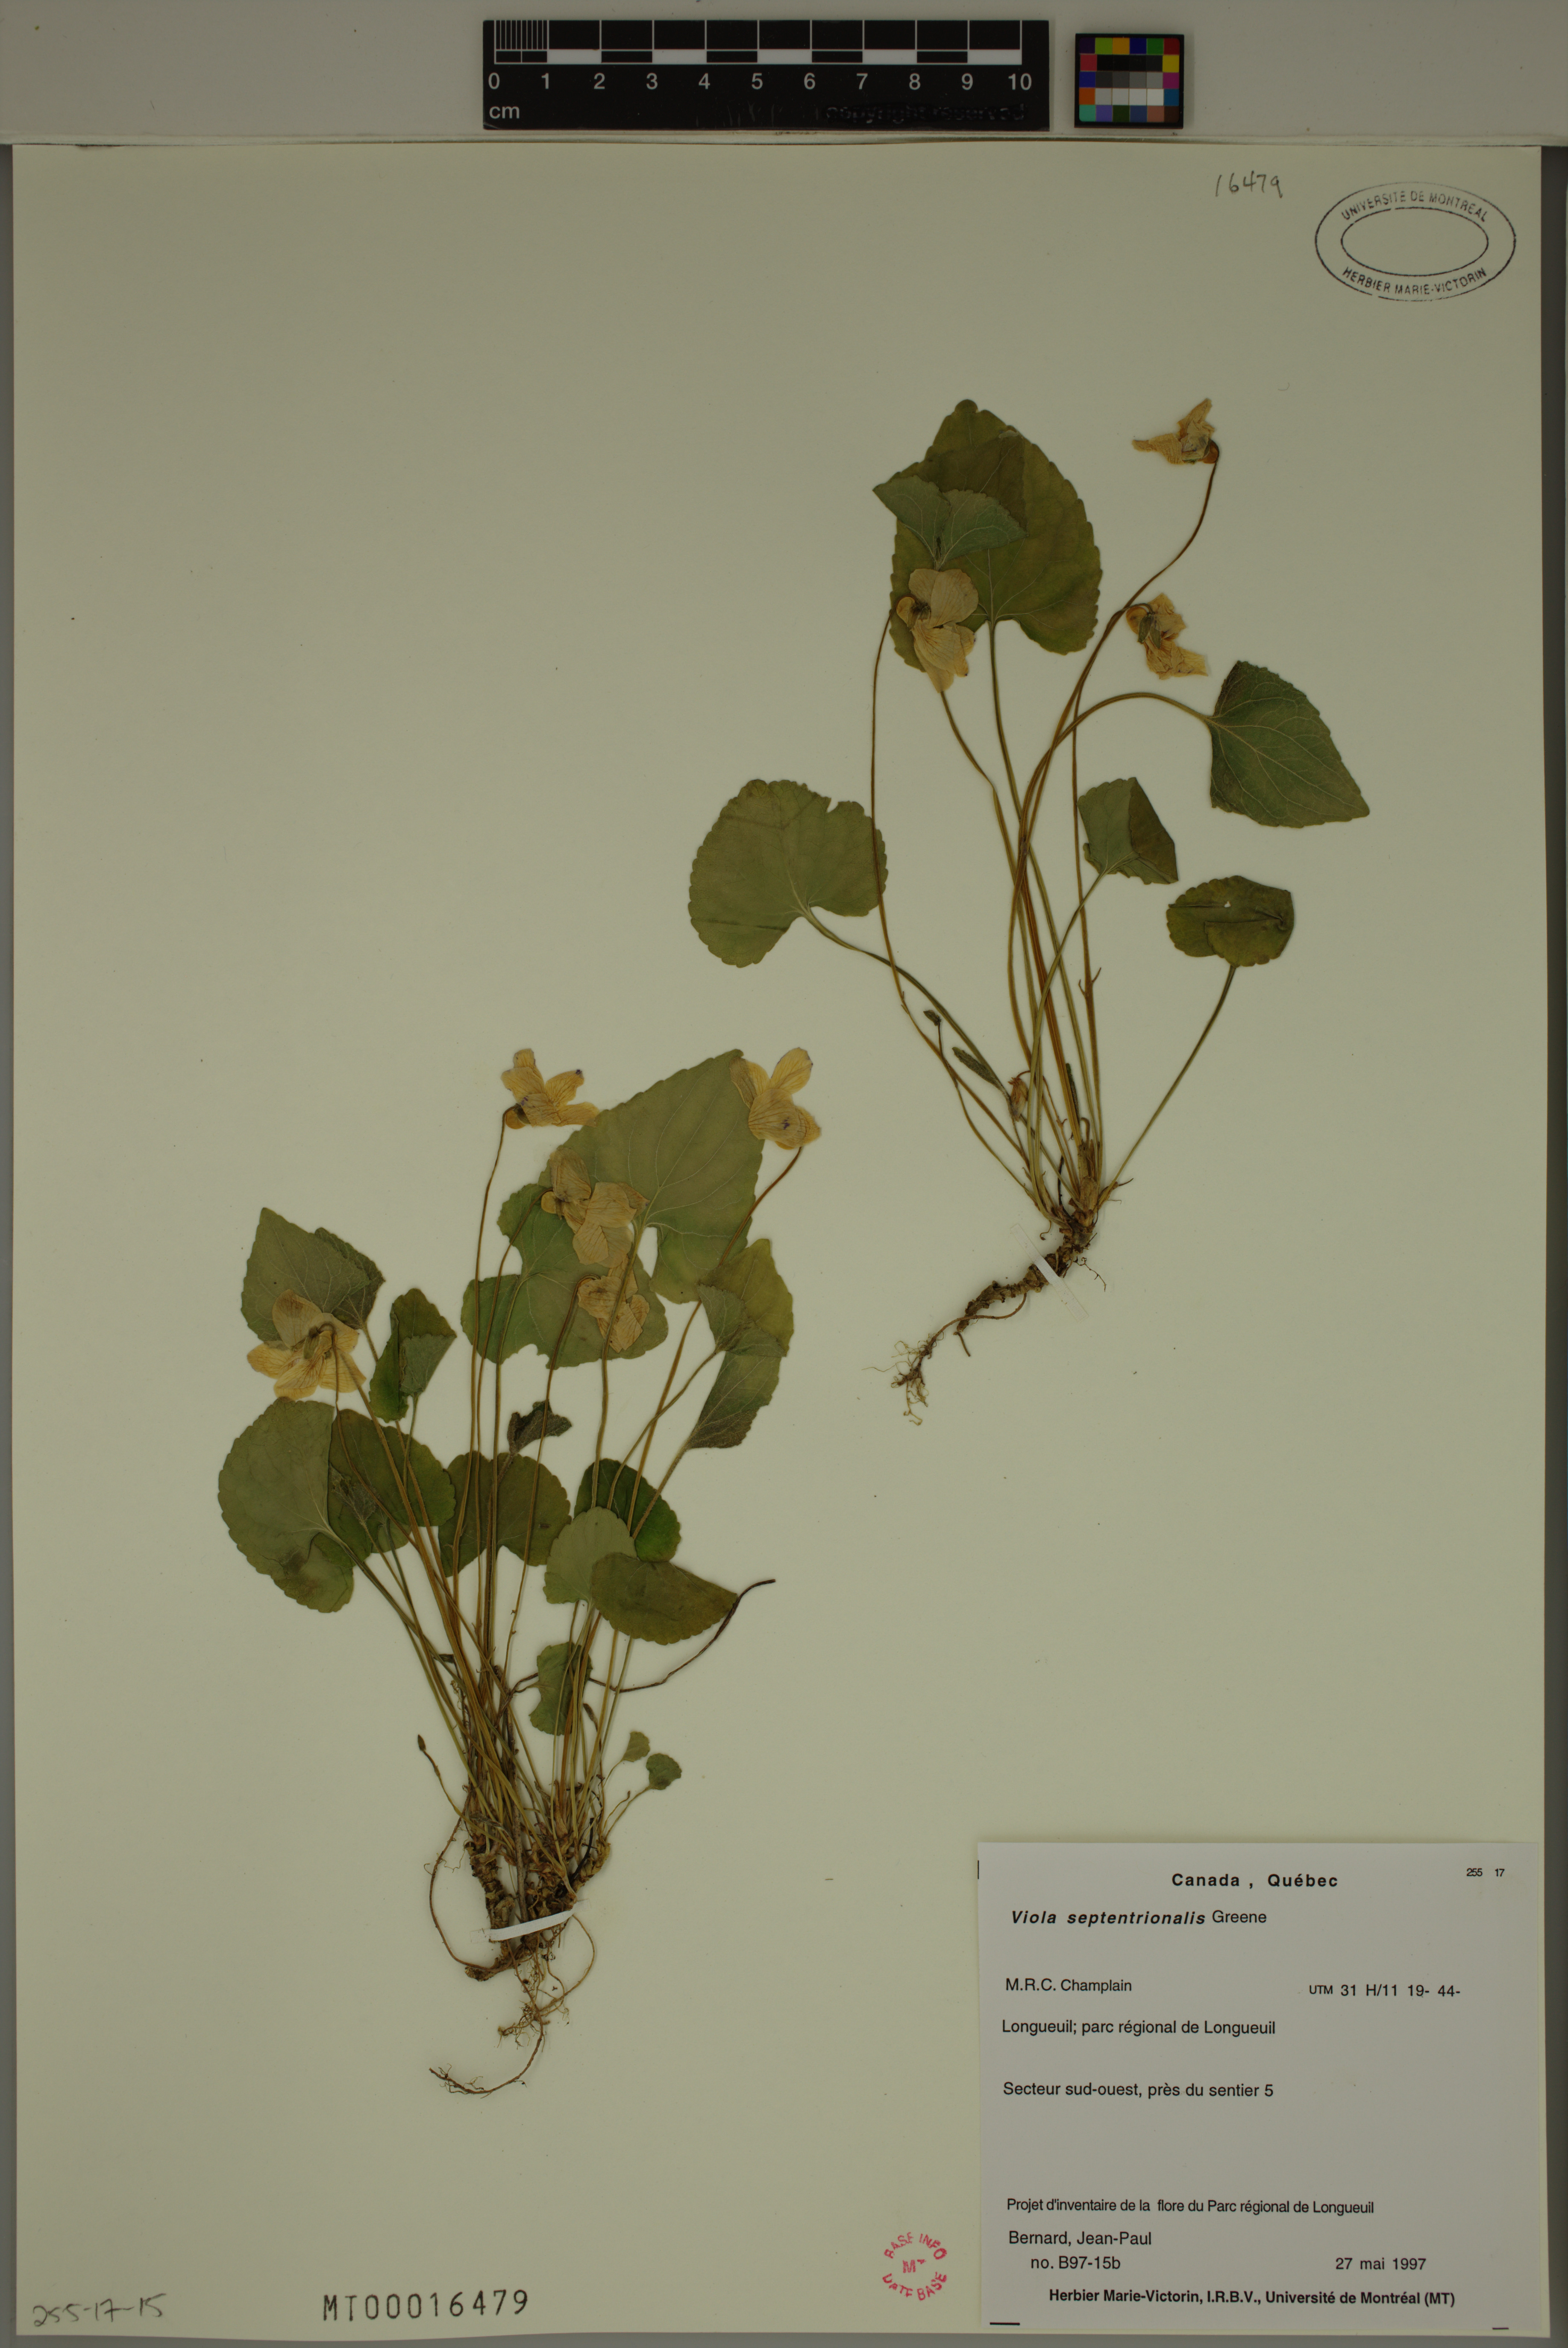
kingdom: Plantae
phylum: Tracheophyta
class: Magnoliopsida
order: Malpighiales
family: Violaceae
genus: Viola
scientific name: Viola sororia
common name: Dooryard violet
